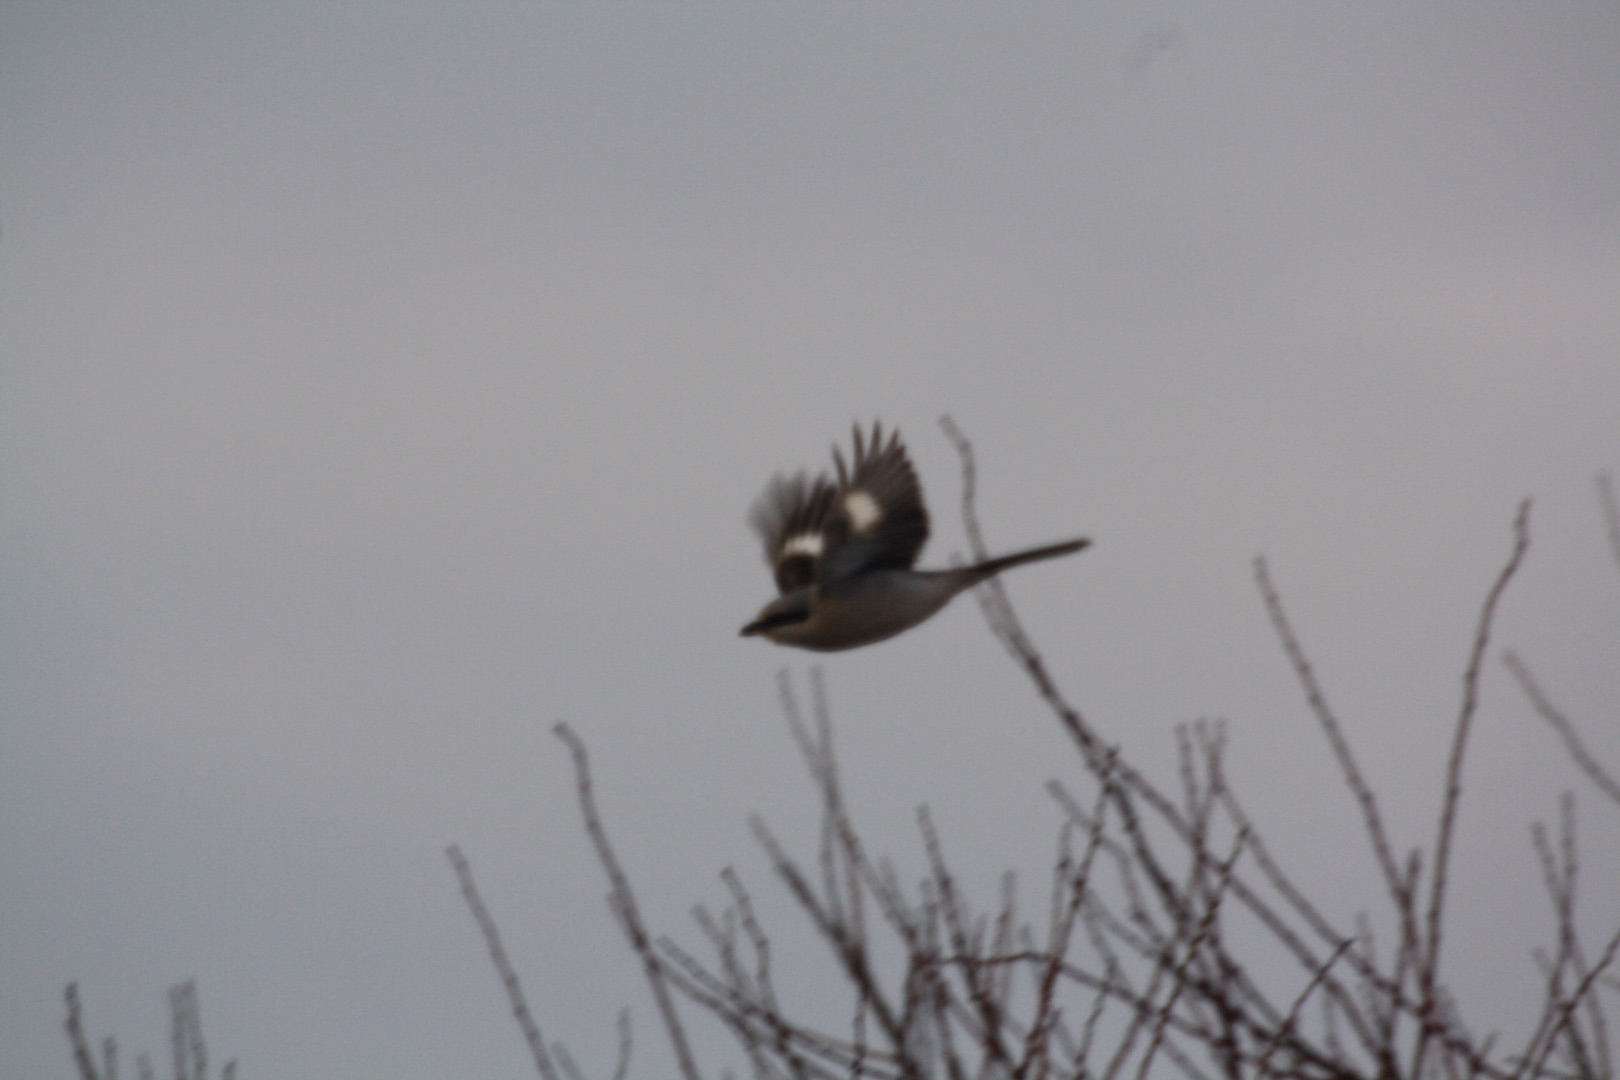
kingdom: Animalia
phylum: Chordata
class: Aves
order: Passeriformes
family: Laniidae
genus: Lanius
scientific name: Lanius excubitor
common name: Stor tornskade
